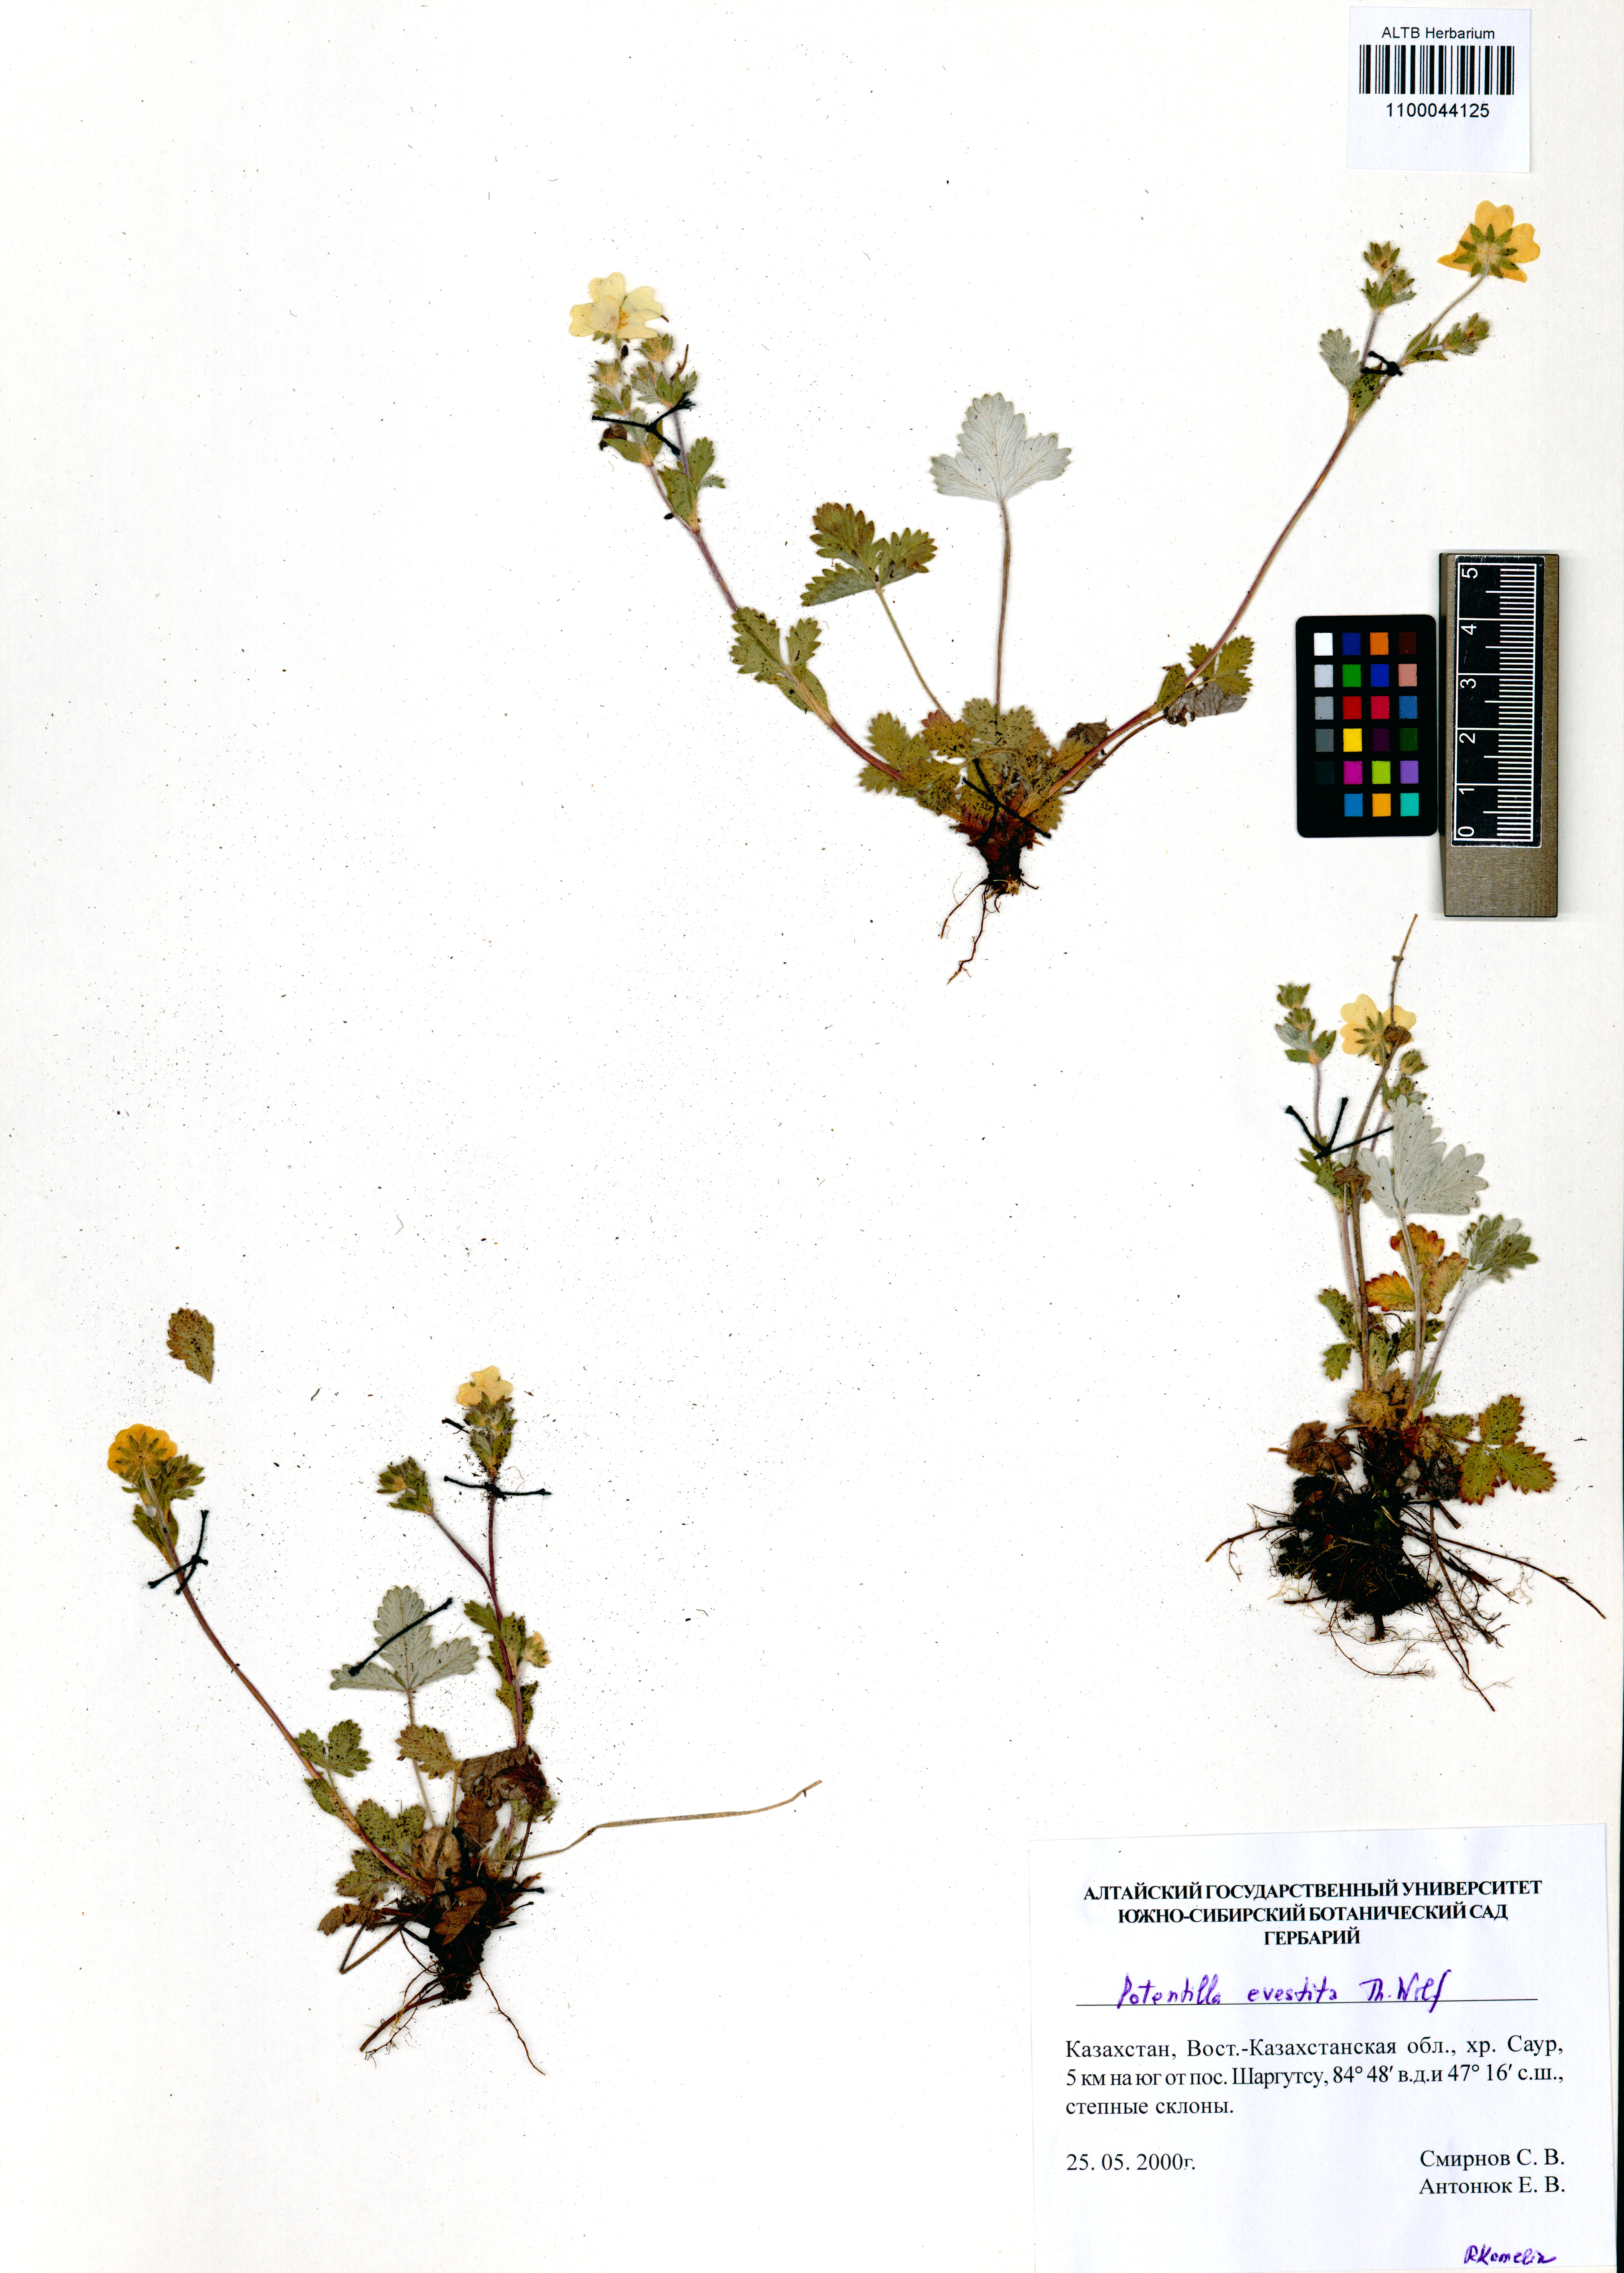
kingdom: Plantae
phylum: Tracheophyta
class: Magnoliopsida
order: Rosales
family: Rosaceae
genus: Potentilla
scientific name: Potentilla evestita
